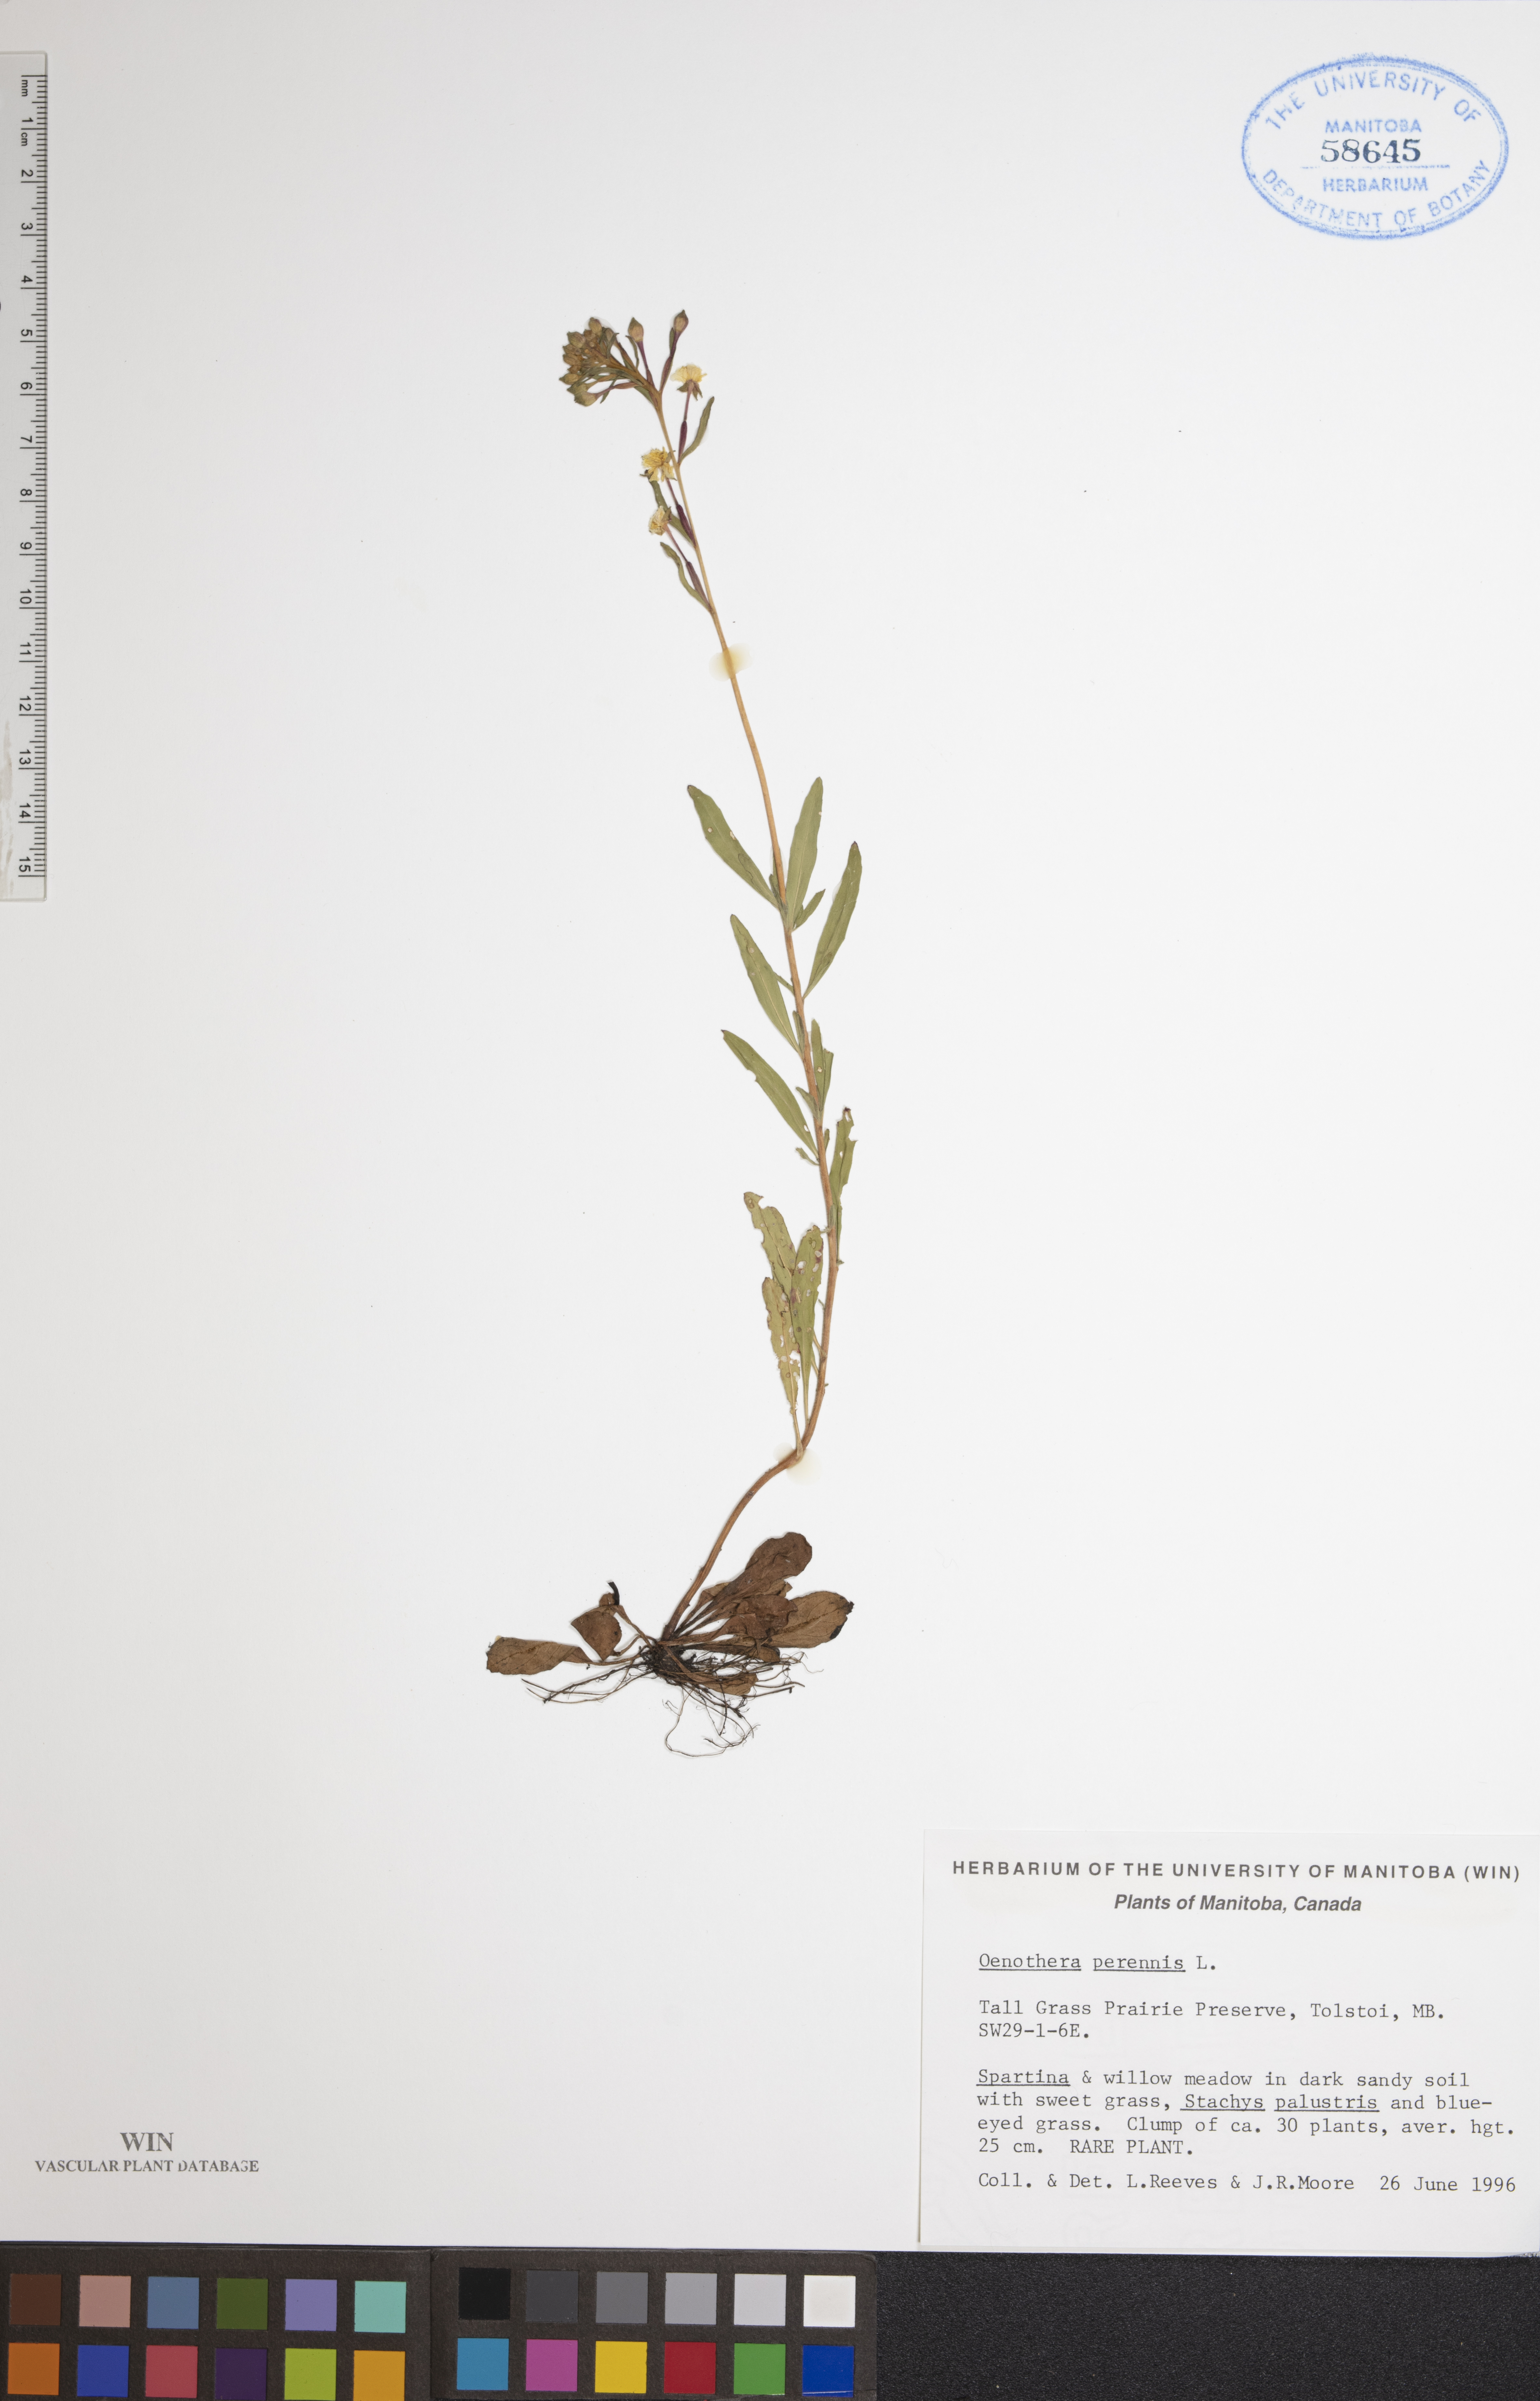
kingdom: Plantae
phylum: Tracheophyta
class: Magnoliopsida
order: Myrtales
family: Onagraceae
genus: Oenothera
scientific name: Oenothera perennis
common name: Small sundrops
